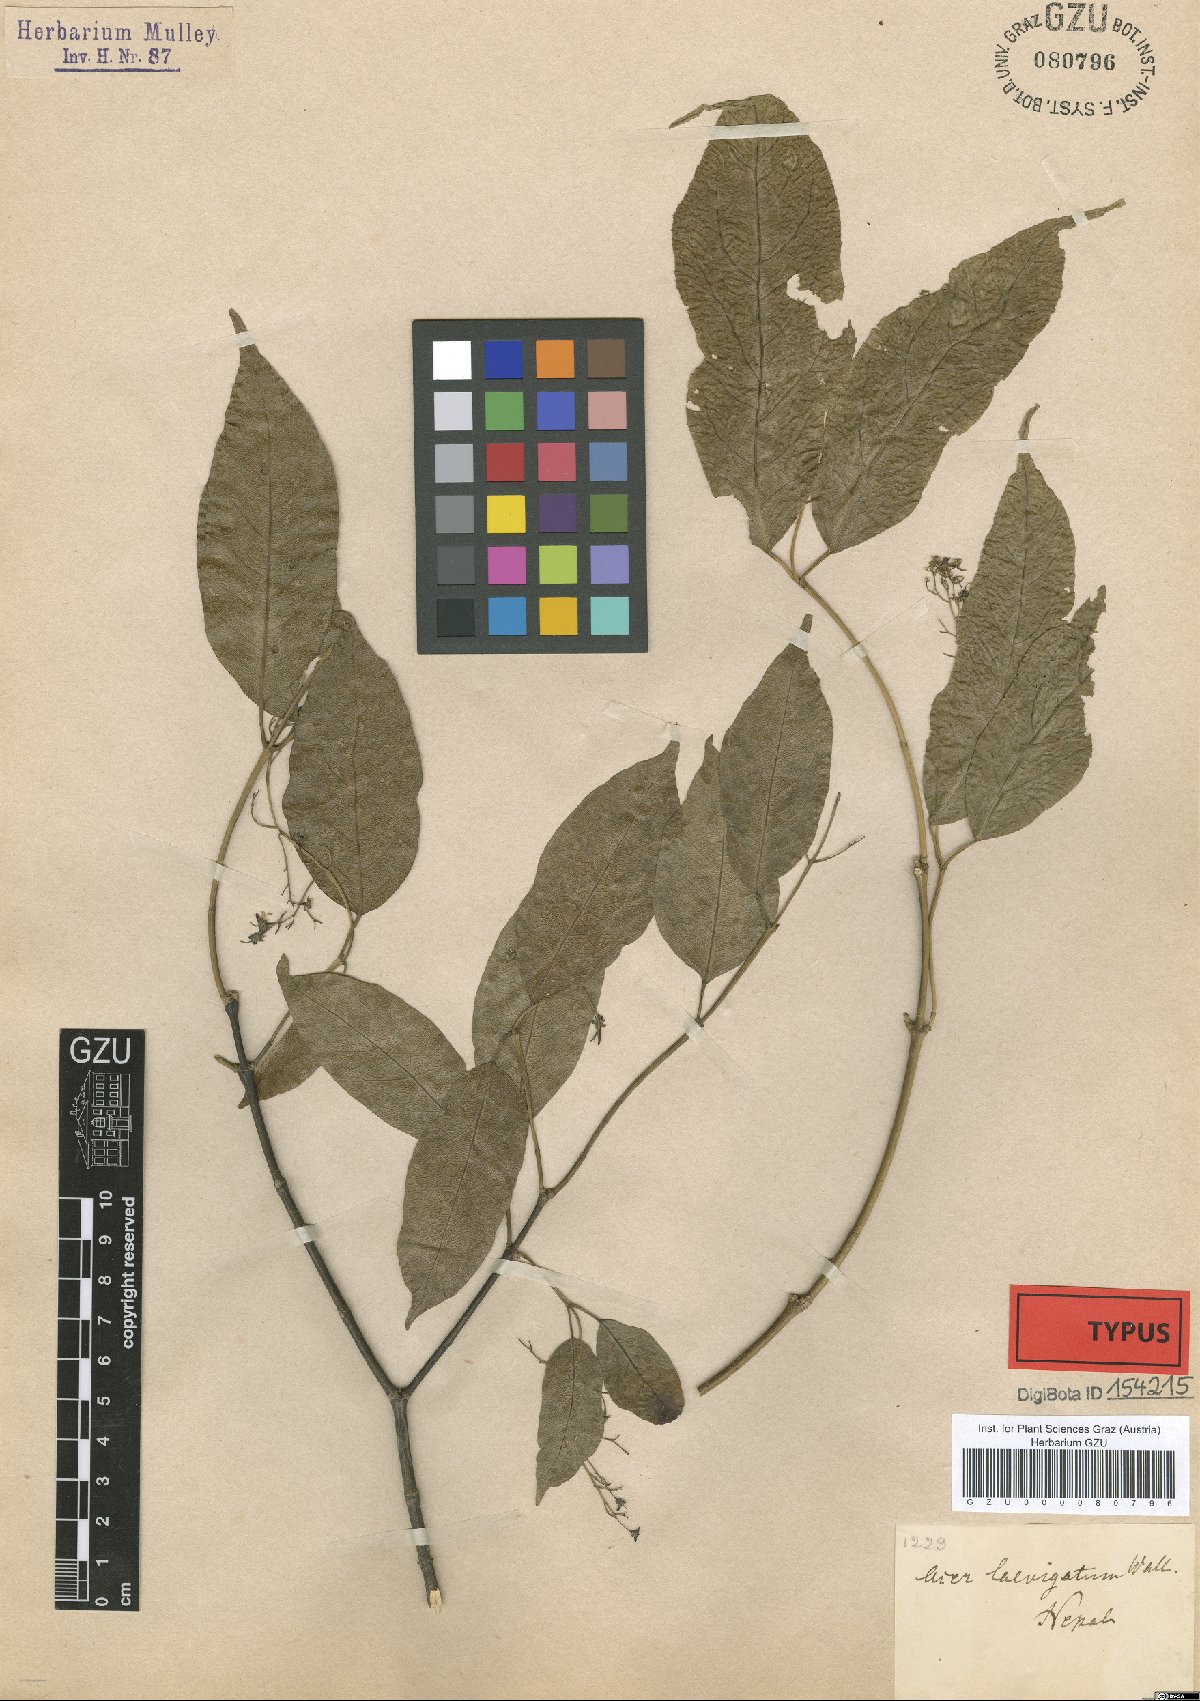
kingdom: Plantae
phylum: Tracheophyta
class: Magnoliopsida
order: Sapindales
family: Sapindaceae
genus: Acer
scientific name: Acer laevigatum
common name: Nepal maple
